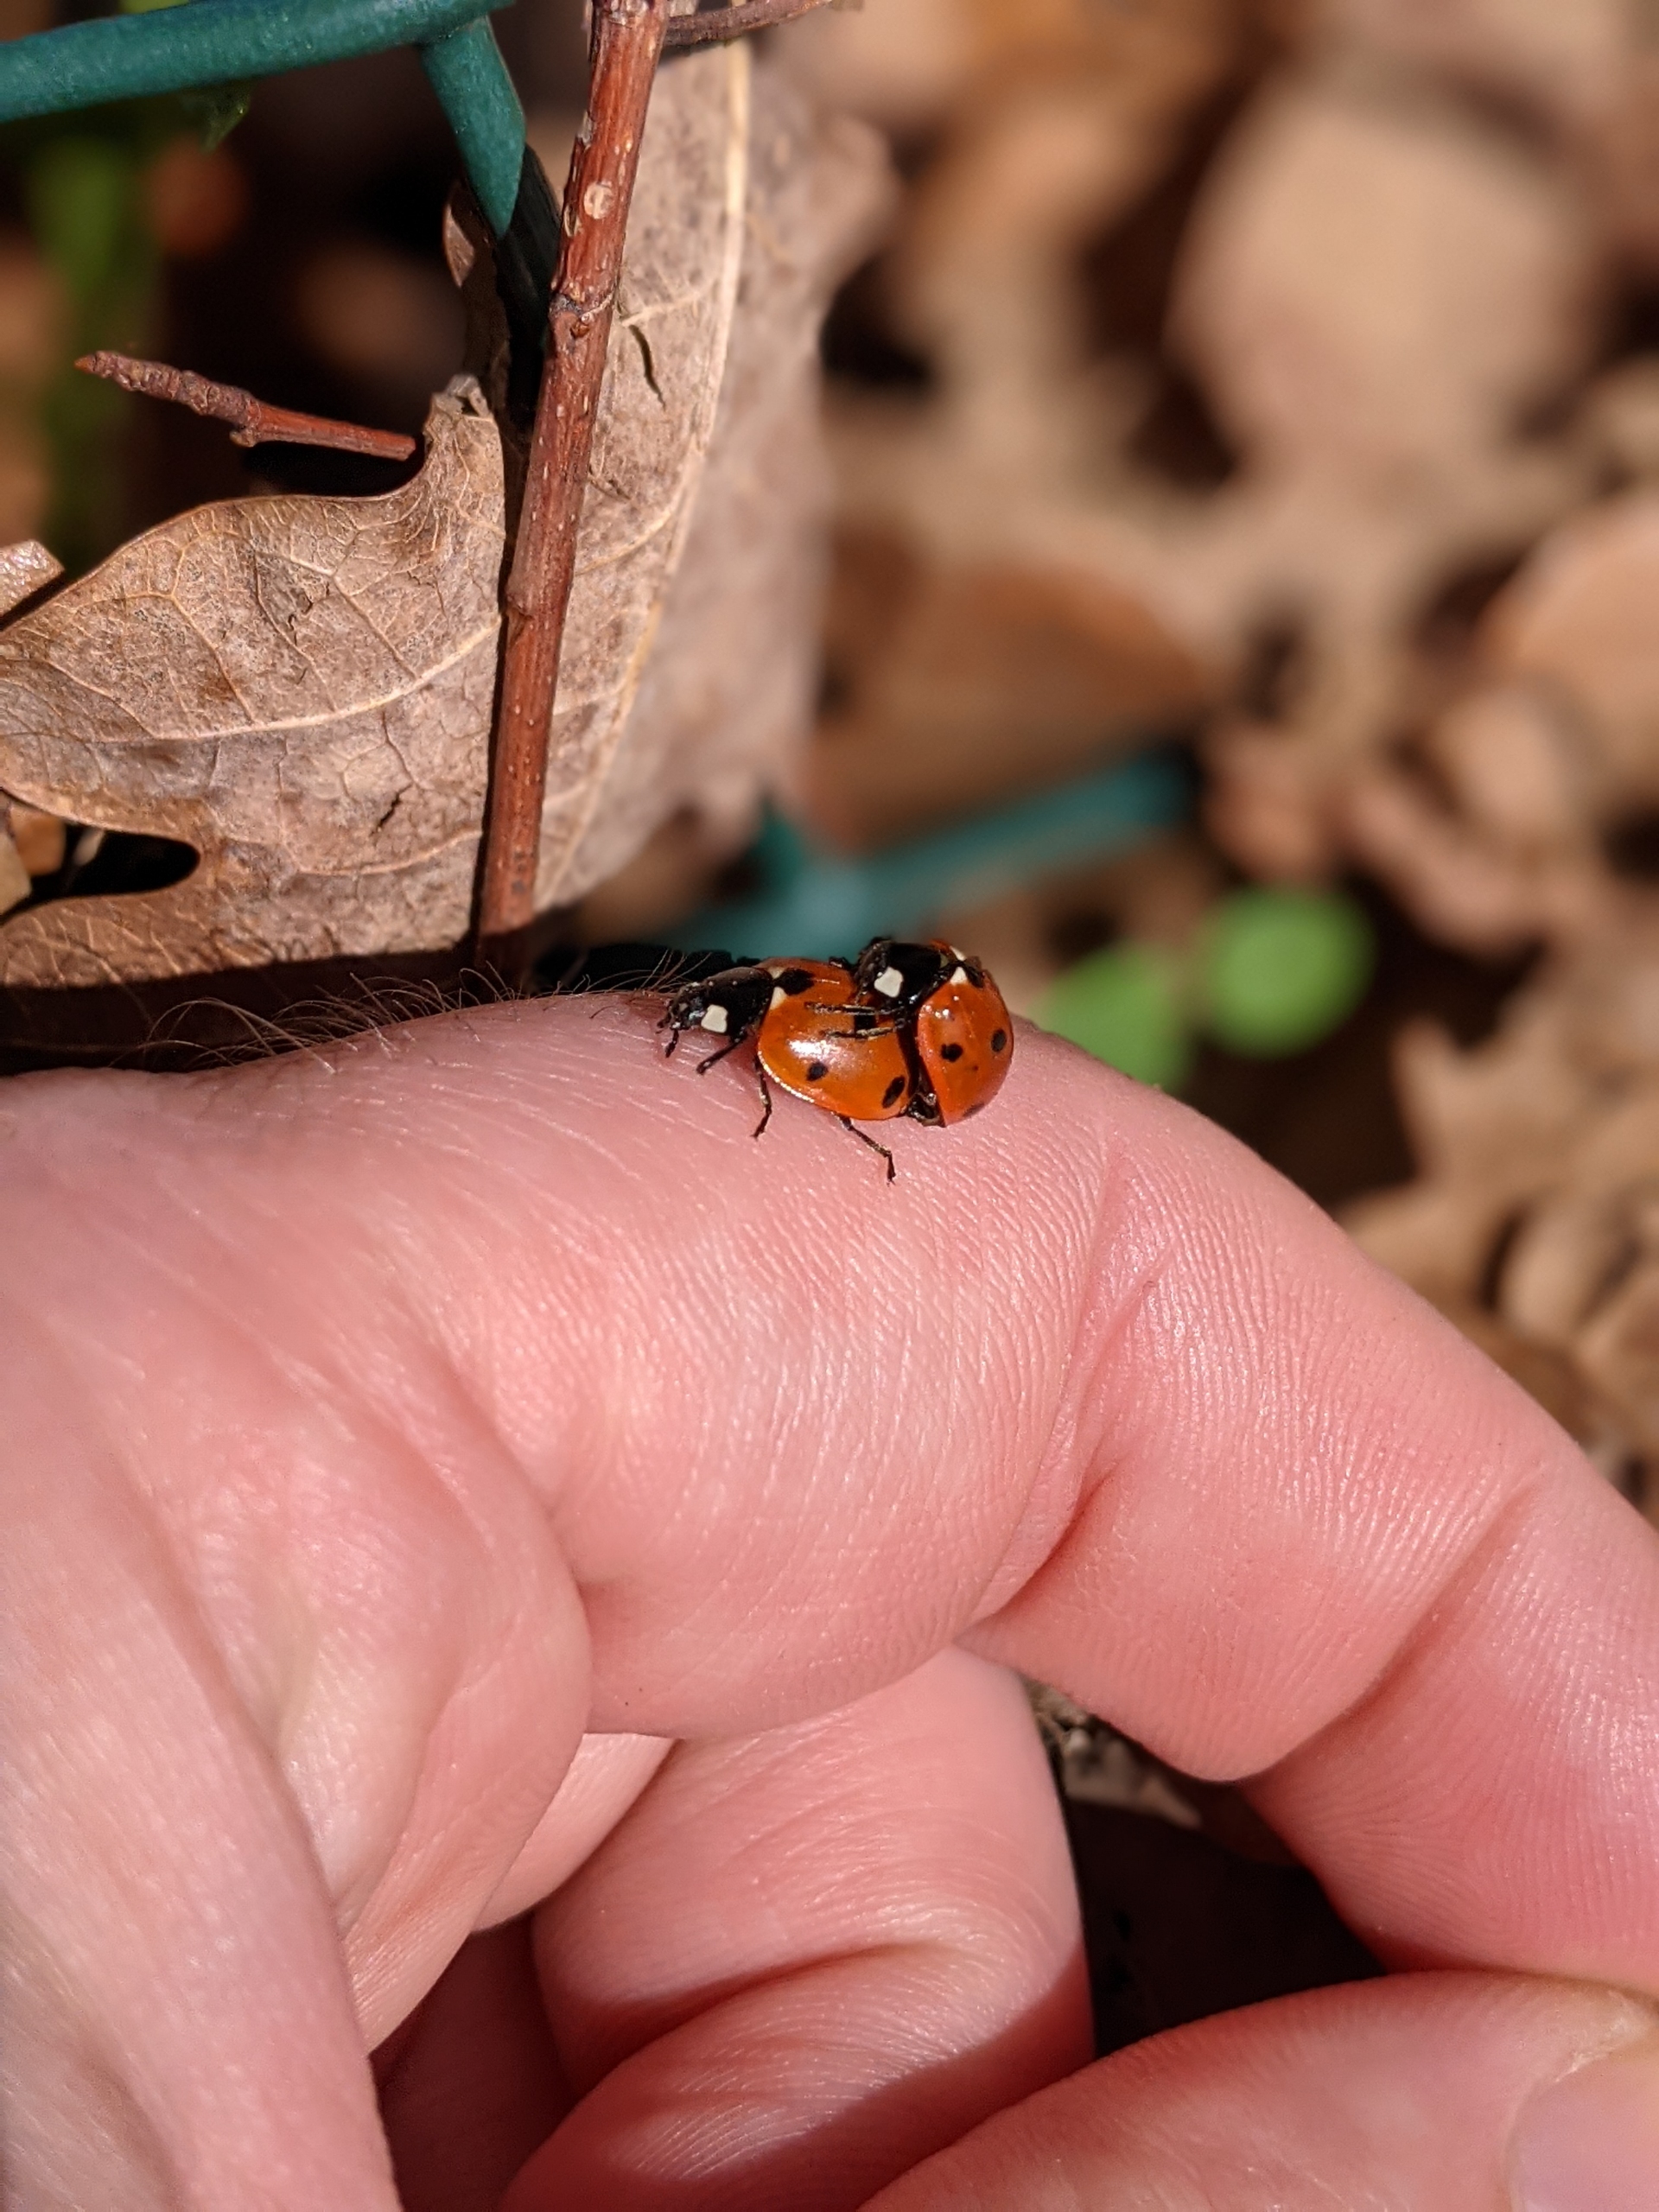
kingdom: Animalia
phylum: Arthropoda
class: Insecta
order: Coleoptera
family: Coccinellidae
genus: Coccinella
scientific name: Coccinella septempunctata
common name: Syvplettet mariehøne
